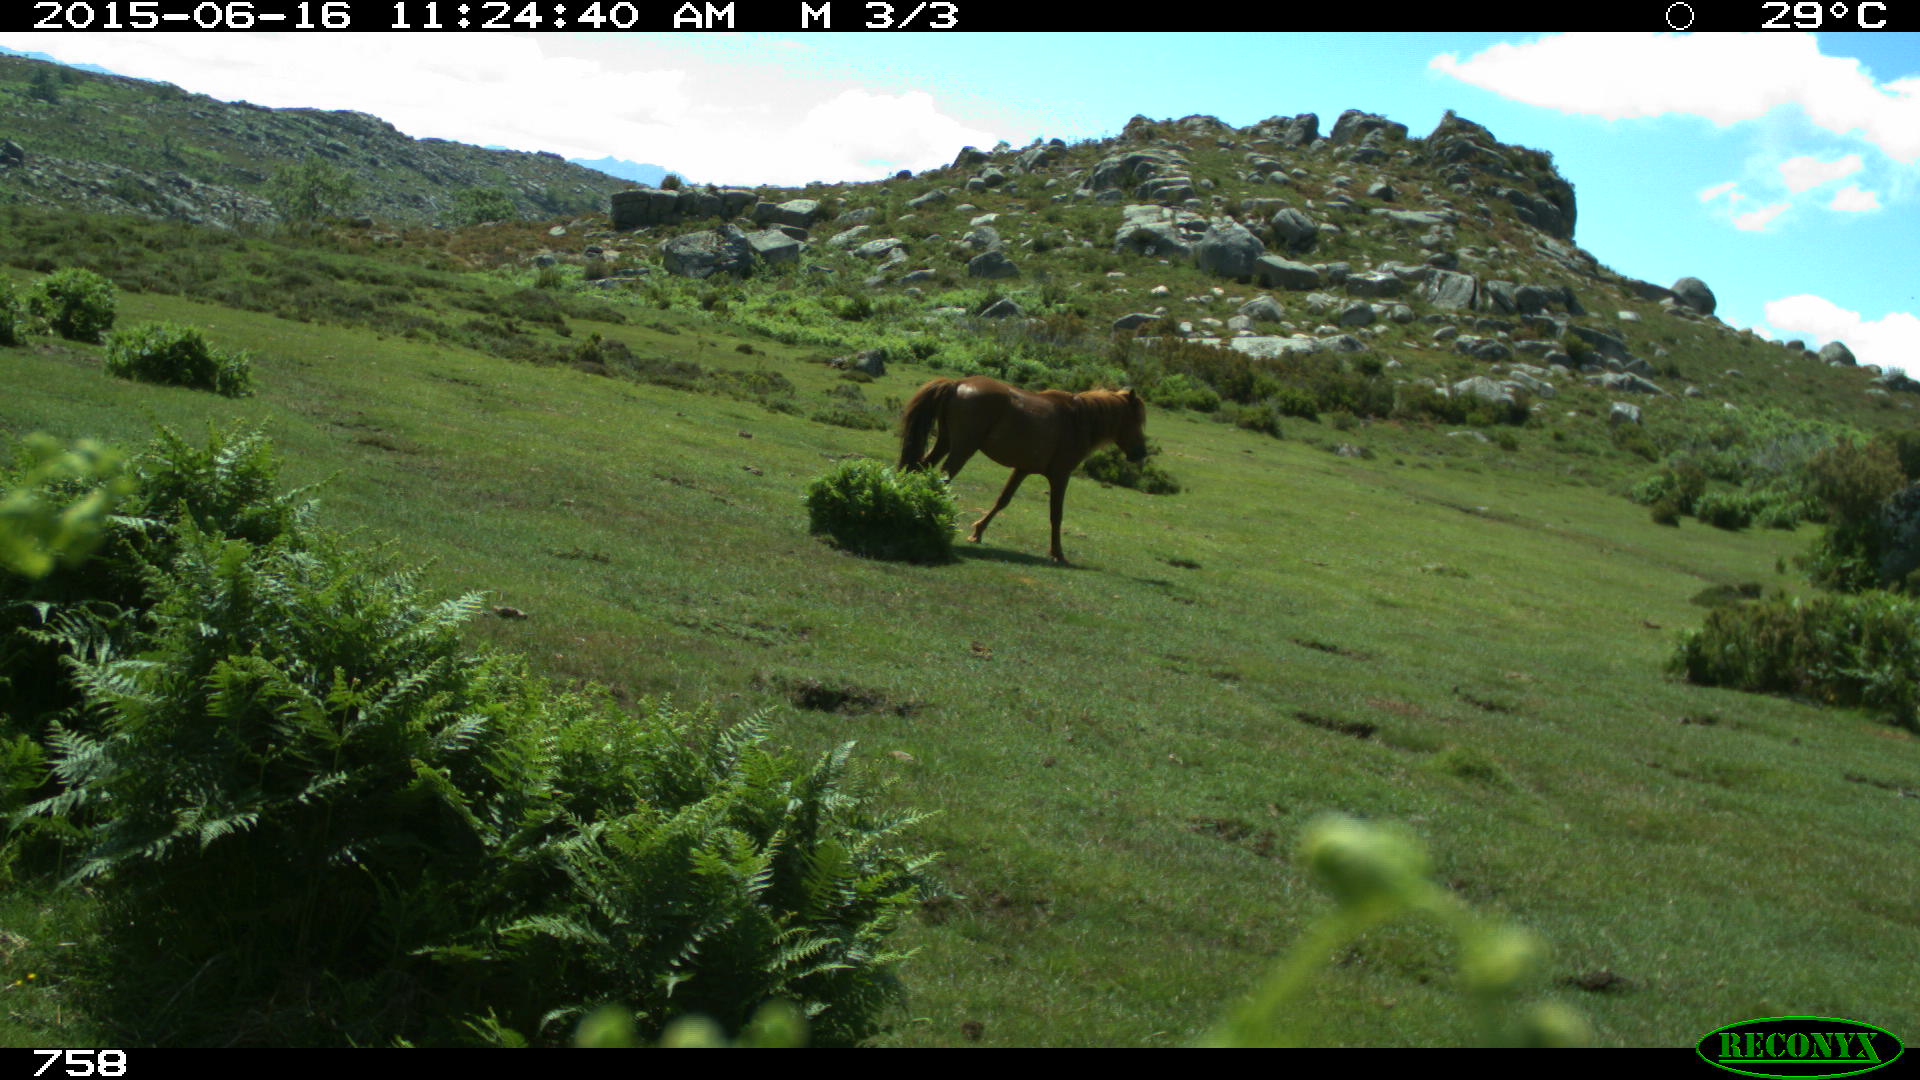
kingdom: Animalia
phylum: Chordata
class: Mammalia
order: Perissodactyla
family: Equidae
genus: Equus
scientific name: Equus caballus
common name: Horse
